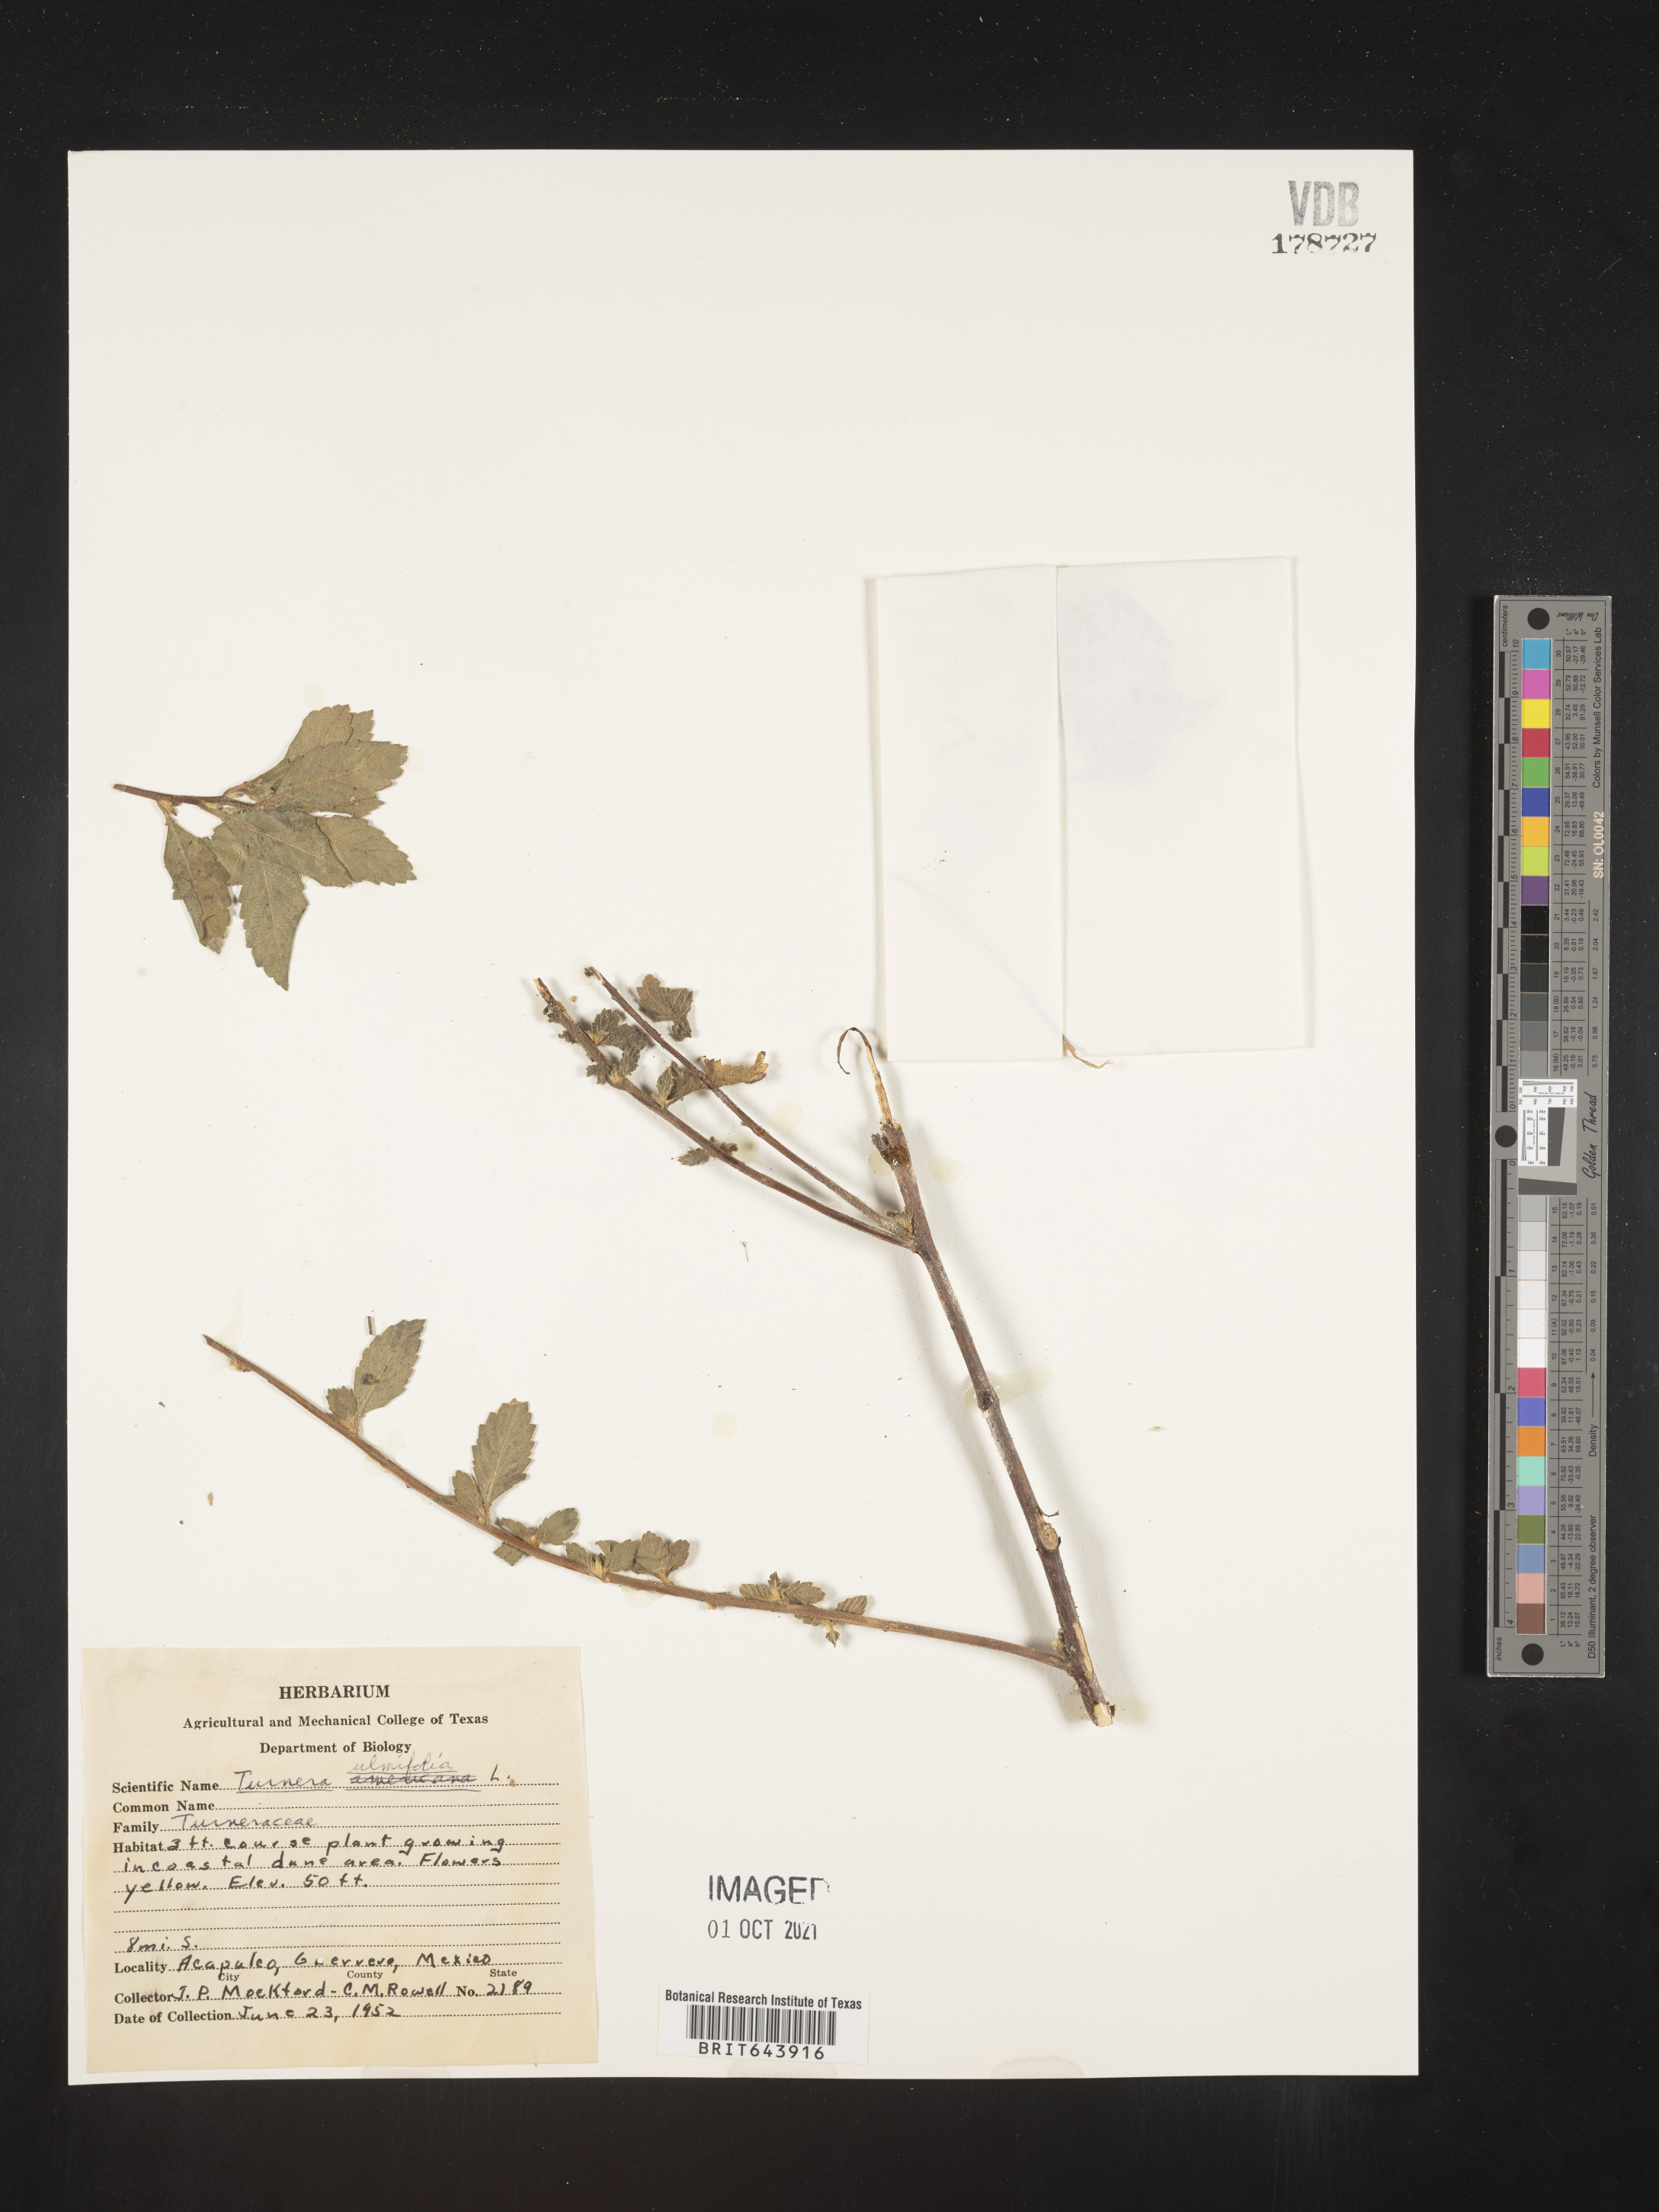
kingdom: Plantae
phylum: Tracheophyta
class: Magnoliopsida
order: Malpighiales
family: Turneraceae
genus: Turnera
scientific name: Turnera
